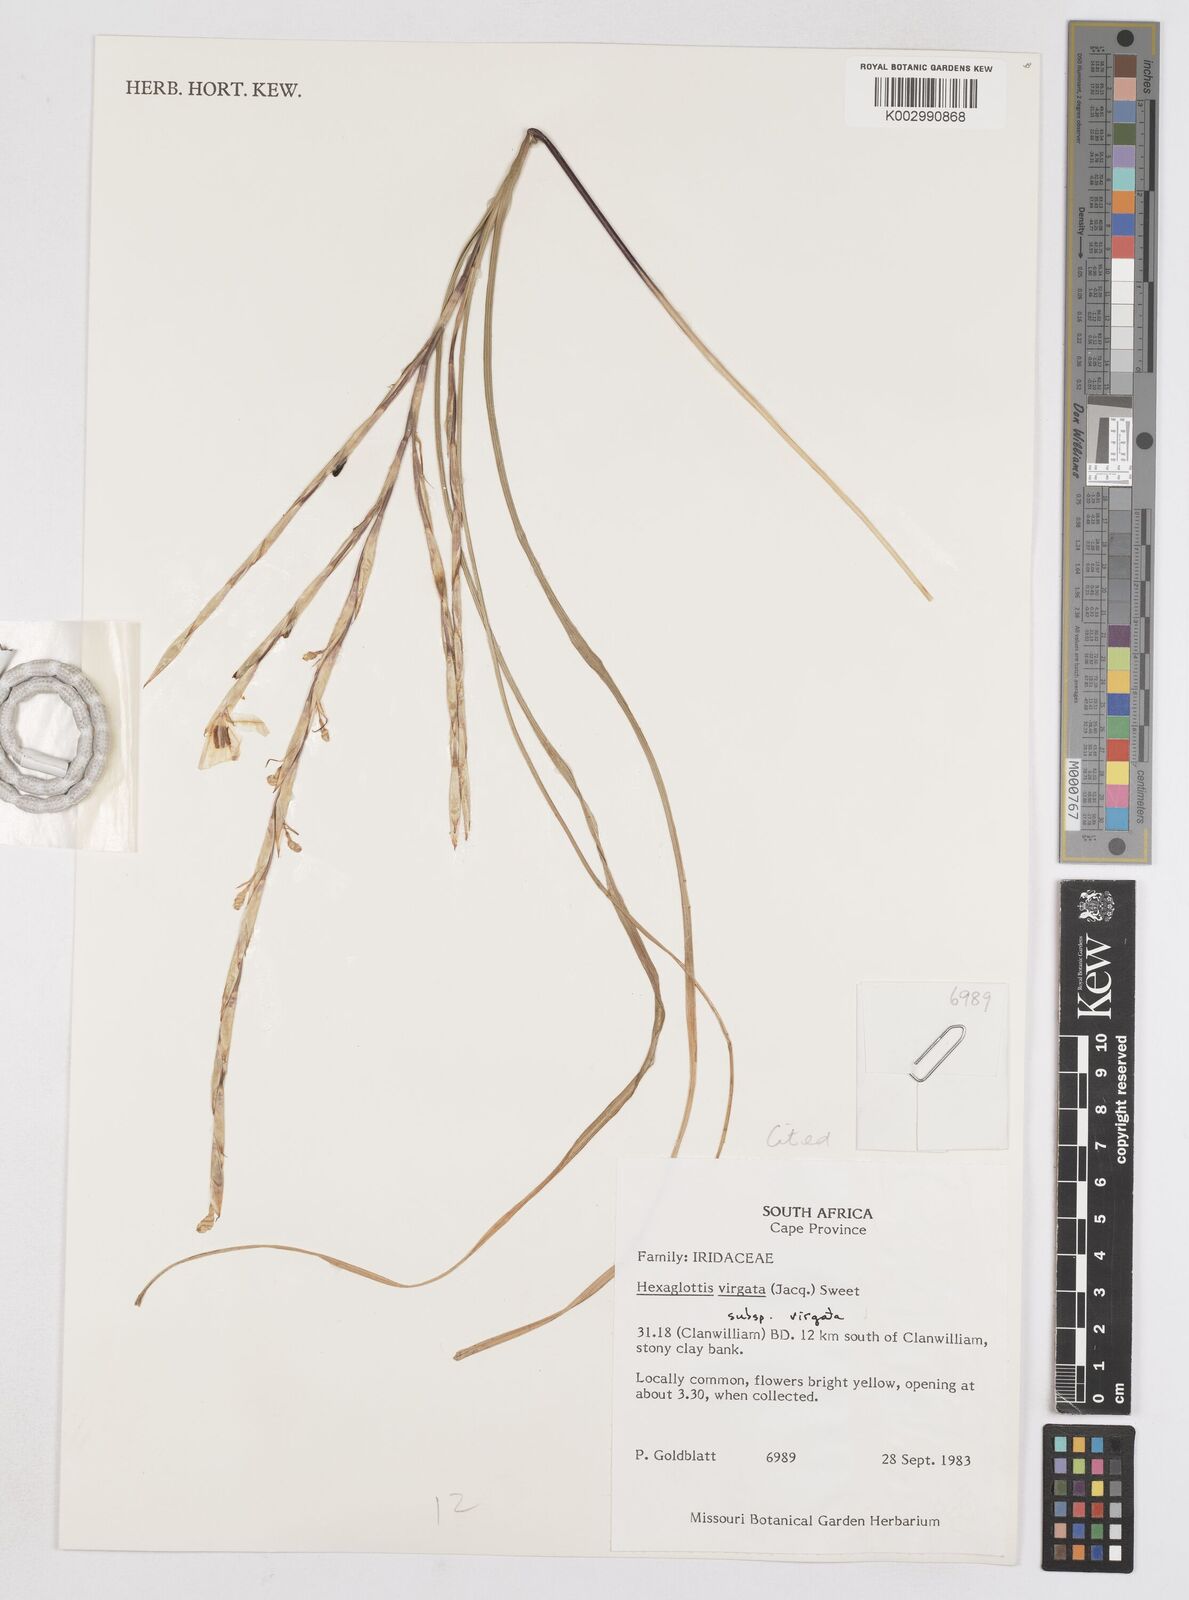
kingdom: Plantae
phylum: Tracheophyta
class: Liliopsida
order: Asparagales
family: Iridaceae
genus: Moraea
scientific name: Moraea virgata
